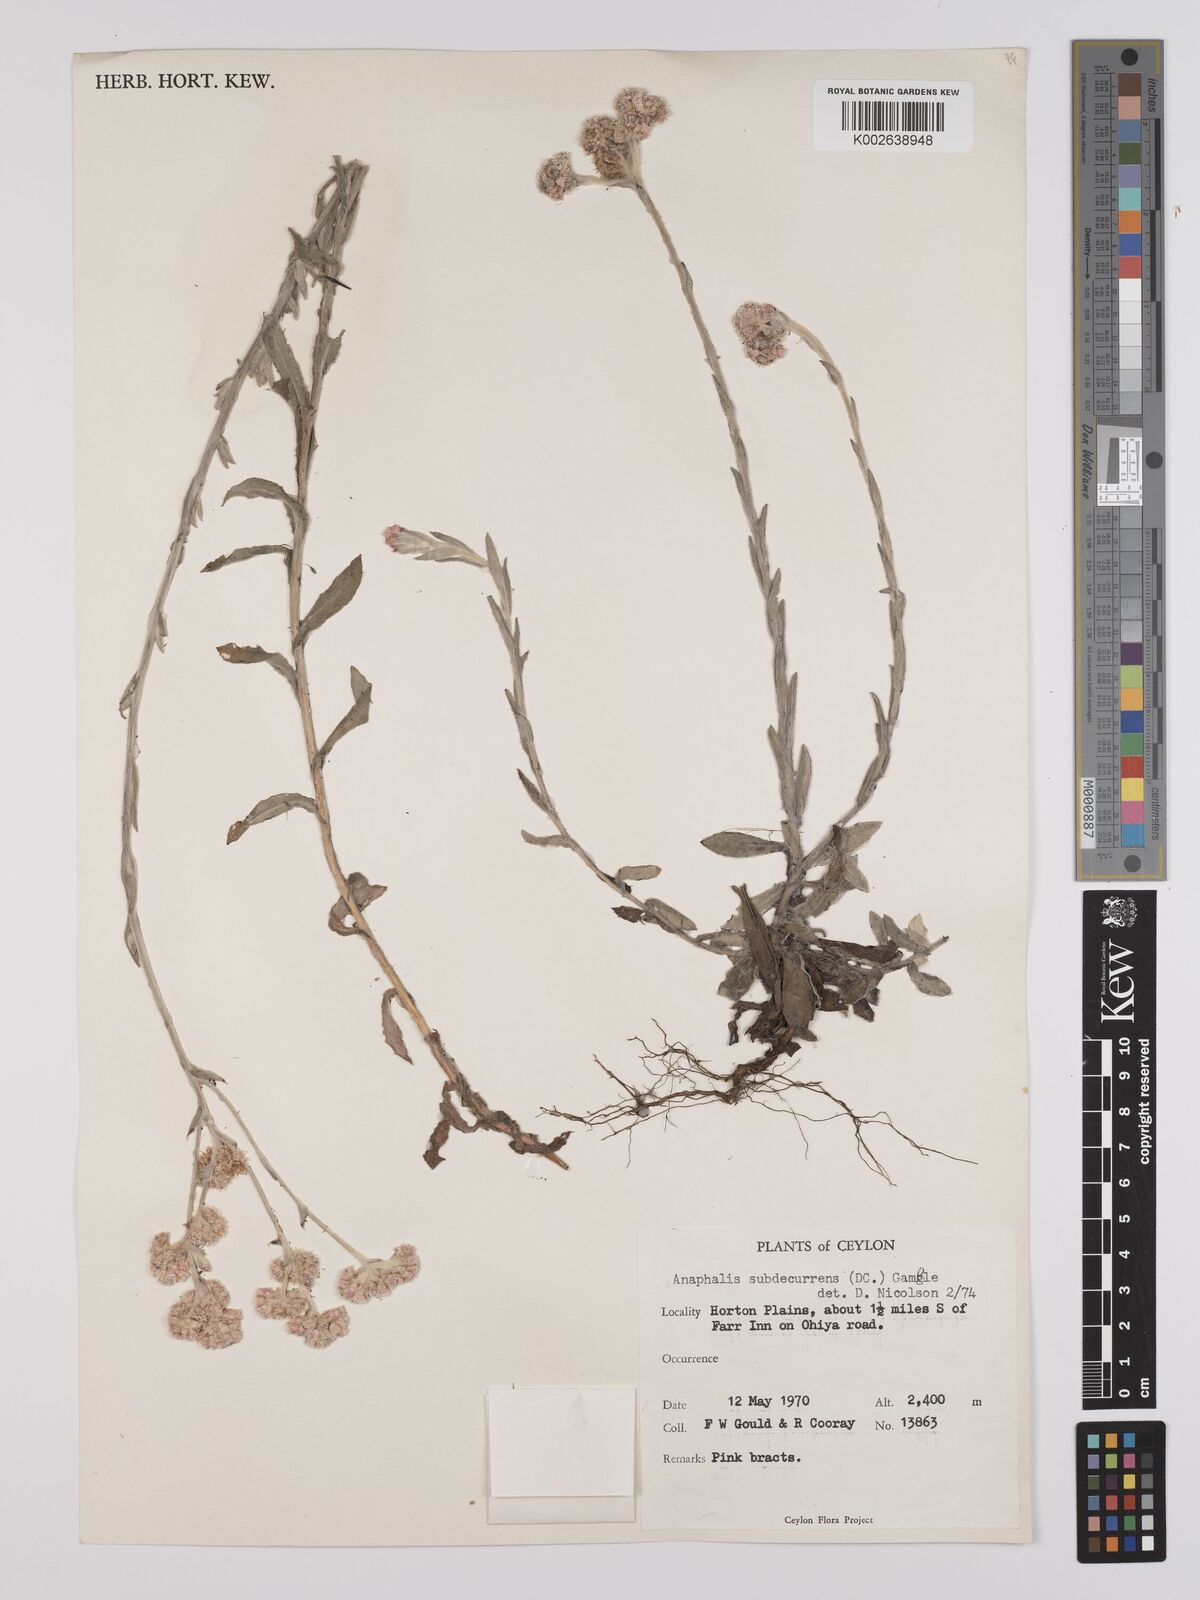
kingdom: Plantae
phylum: Tracheophyta
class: Magnoliopsida
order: Asterales
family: Asteraceae
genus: Anaphalis
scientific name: Anaphalis subdecurrens
